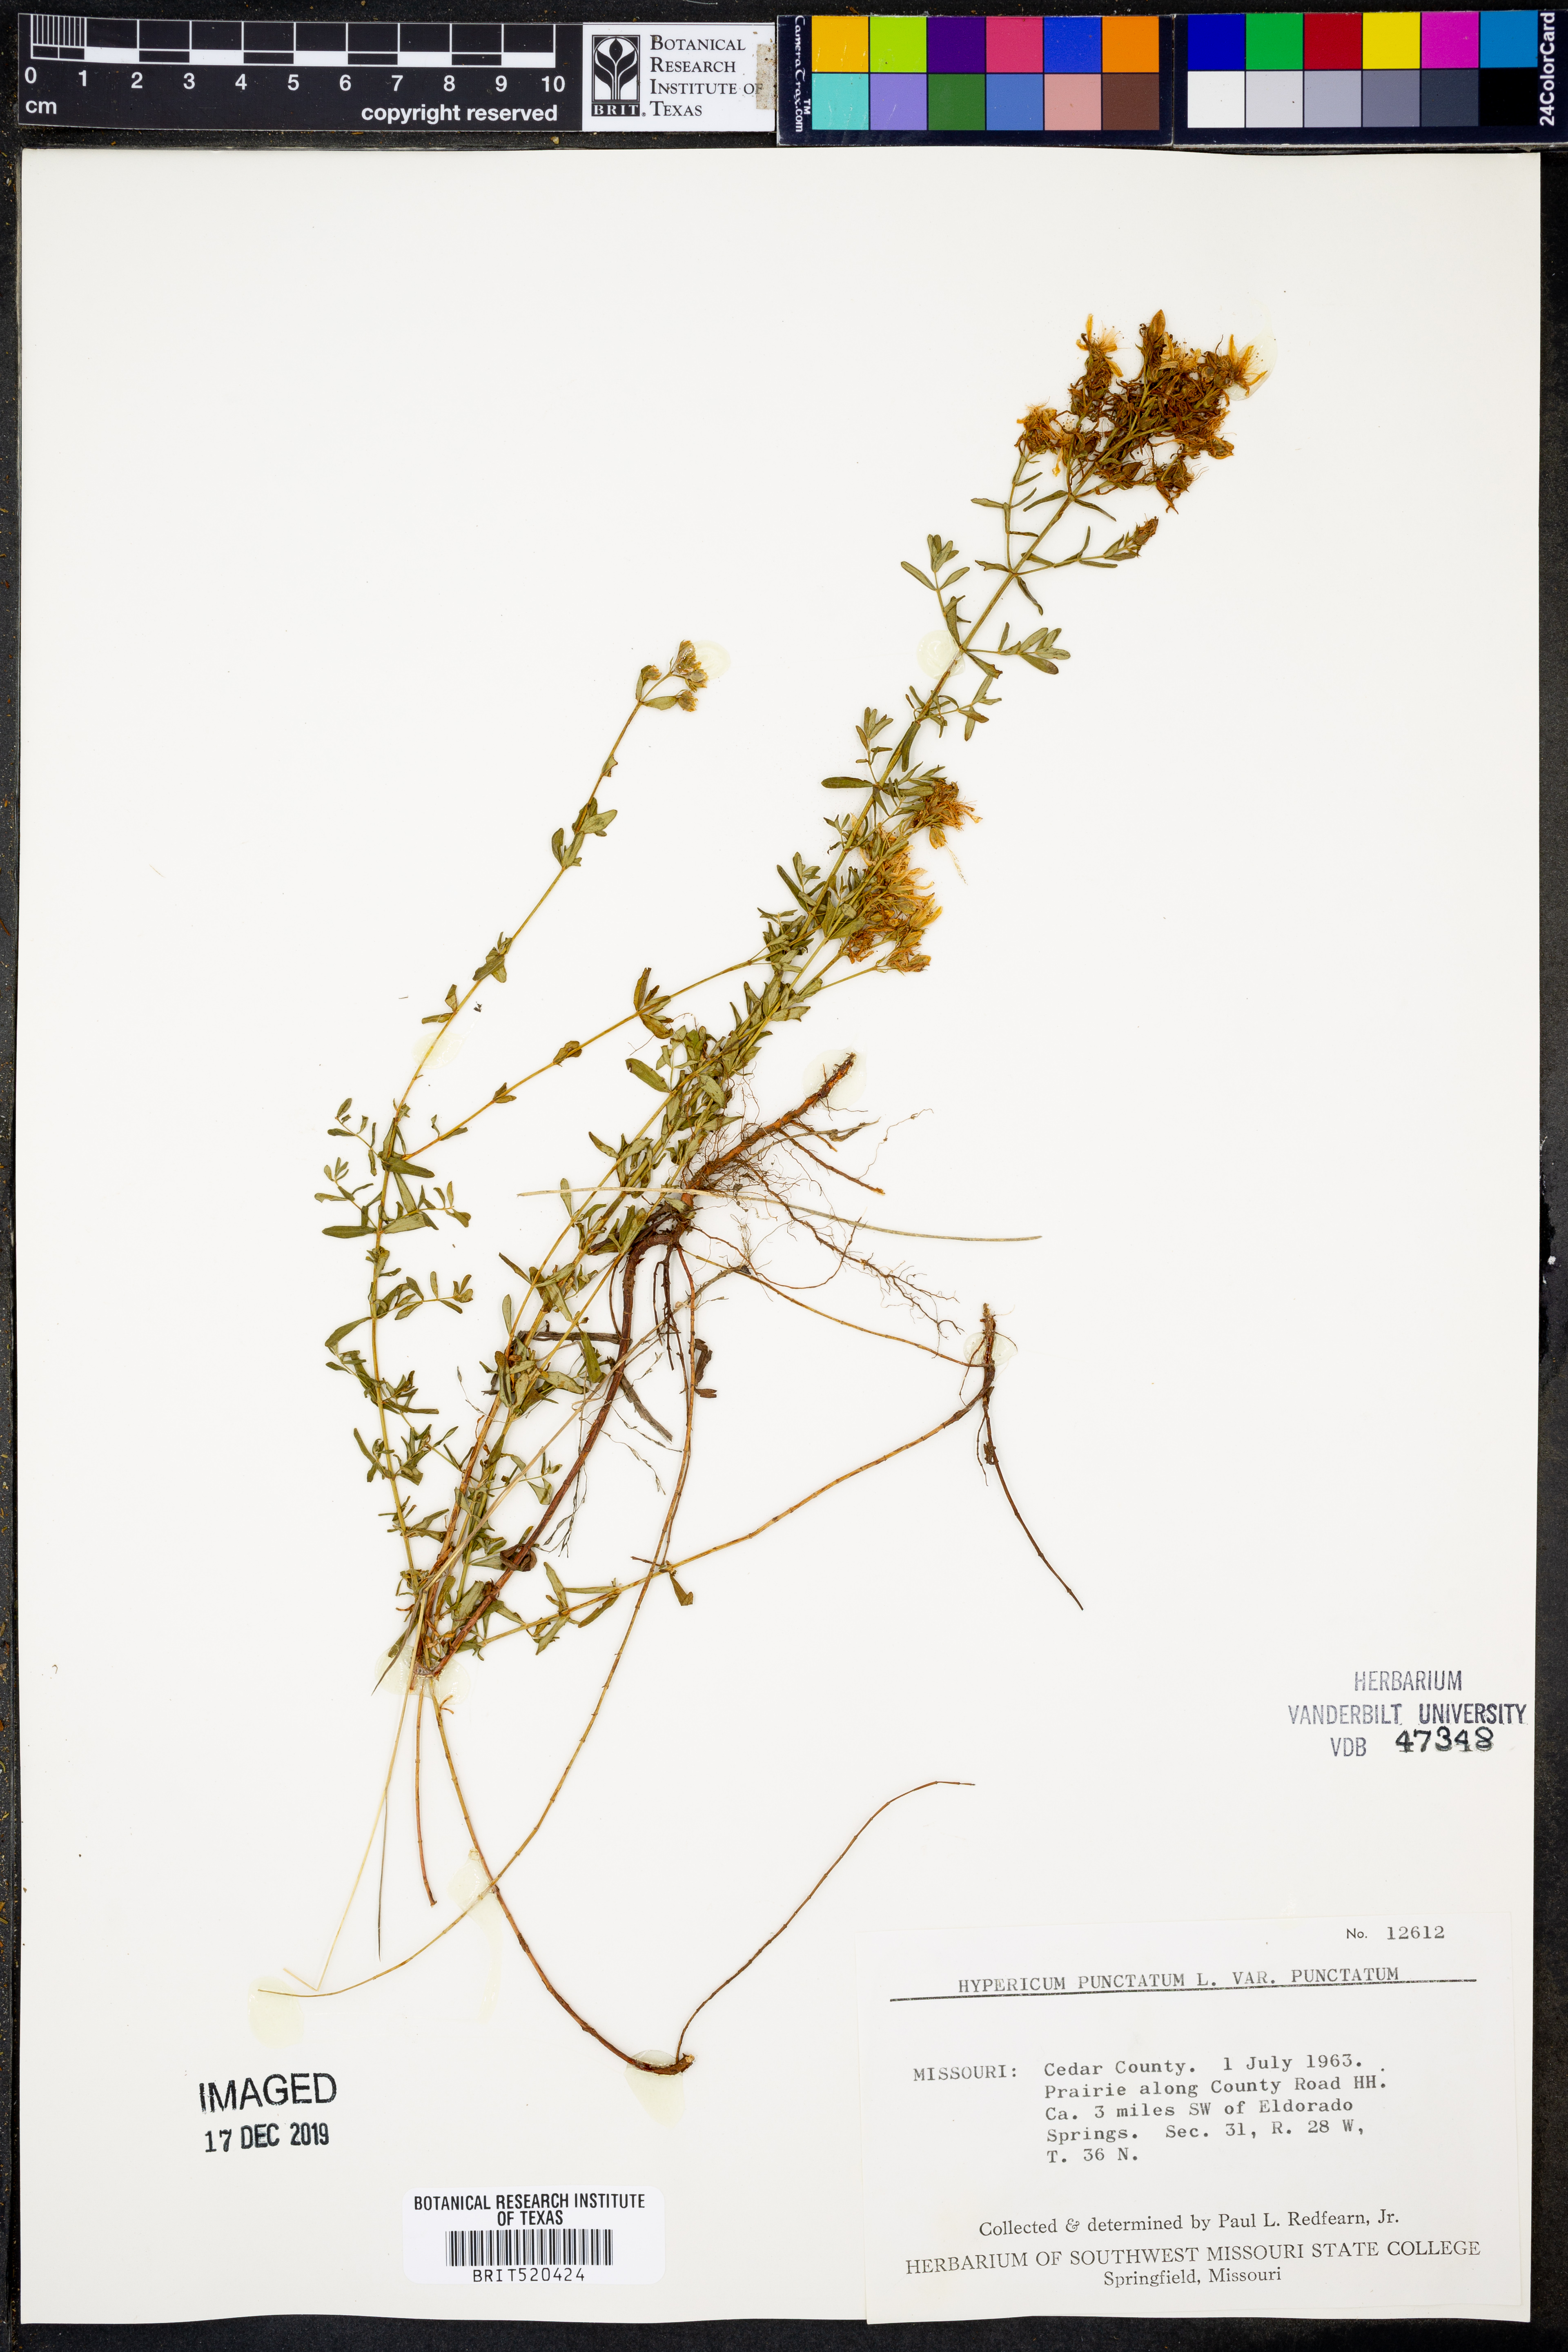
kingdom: Plantae
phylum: Tracheophyta
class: Magnoliopsida
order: Malpighiales
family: Hypericaceae
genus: Hypericum
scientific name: Hypericum punctatum
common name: Spotted st. john's-wort
